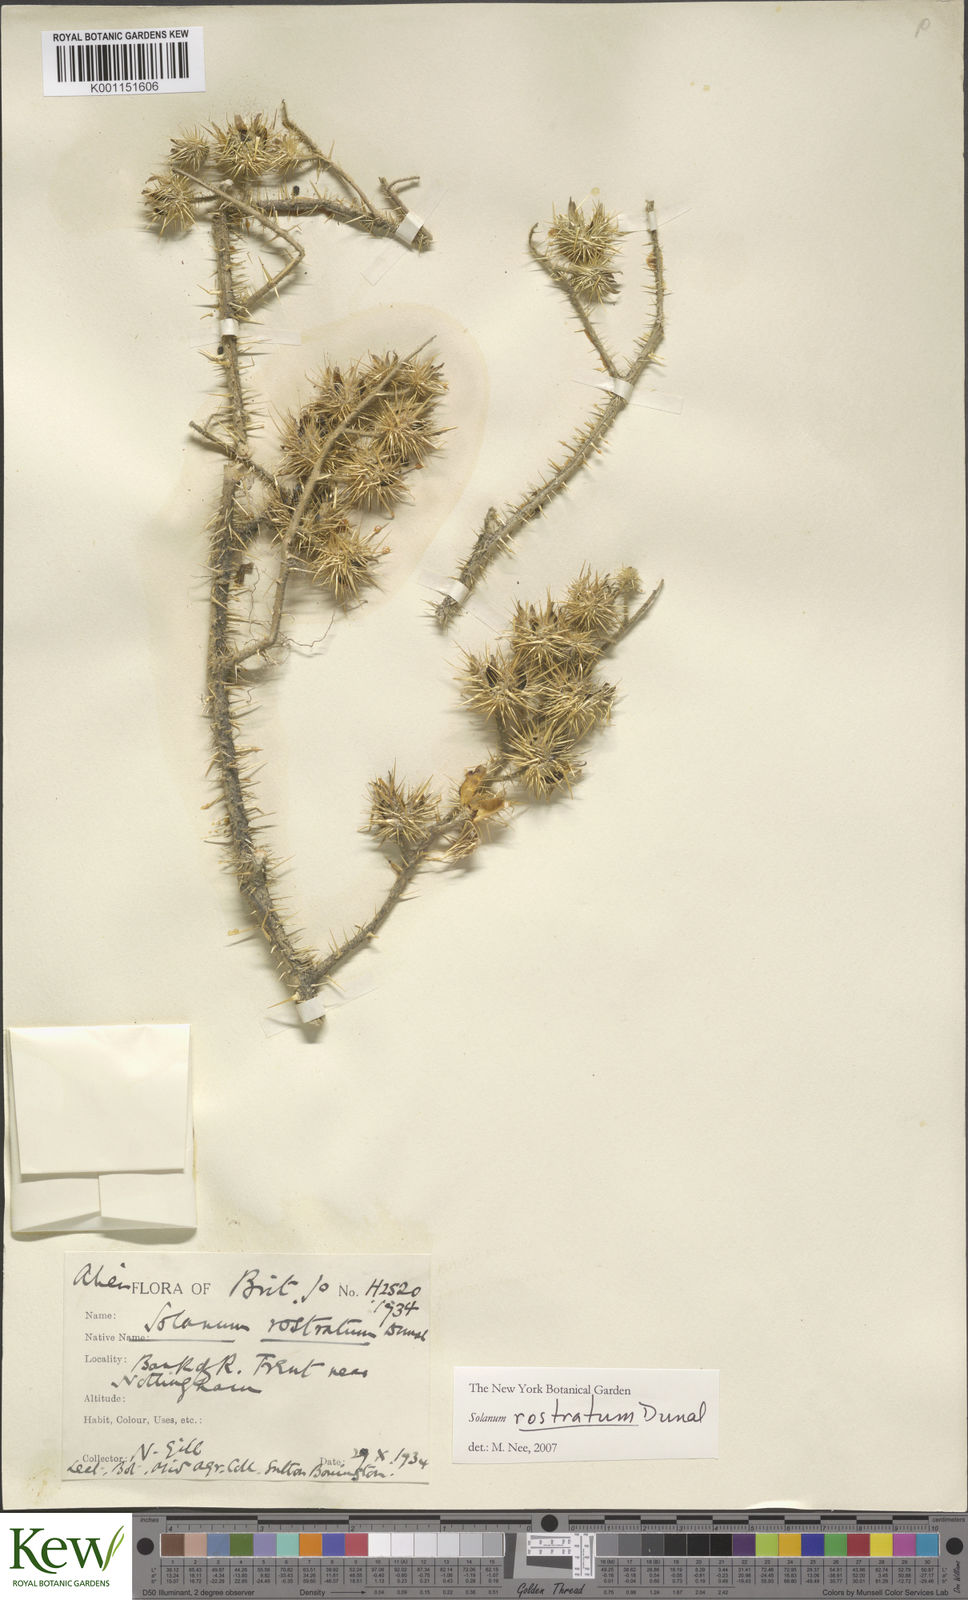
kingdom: Plantae
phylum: Tracheophyta
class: Magnoliopsida
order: Solanales
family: Solanaceae
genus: Solanum
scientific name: Solanum angustifolium
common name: Buffalobur nightshade
